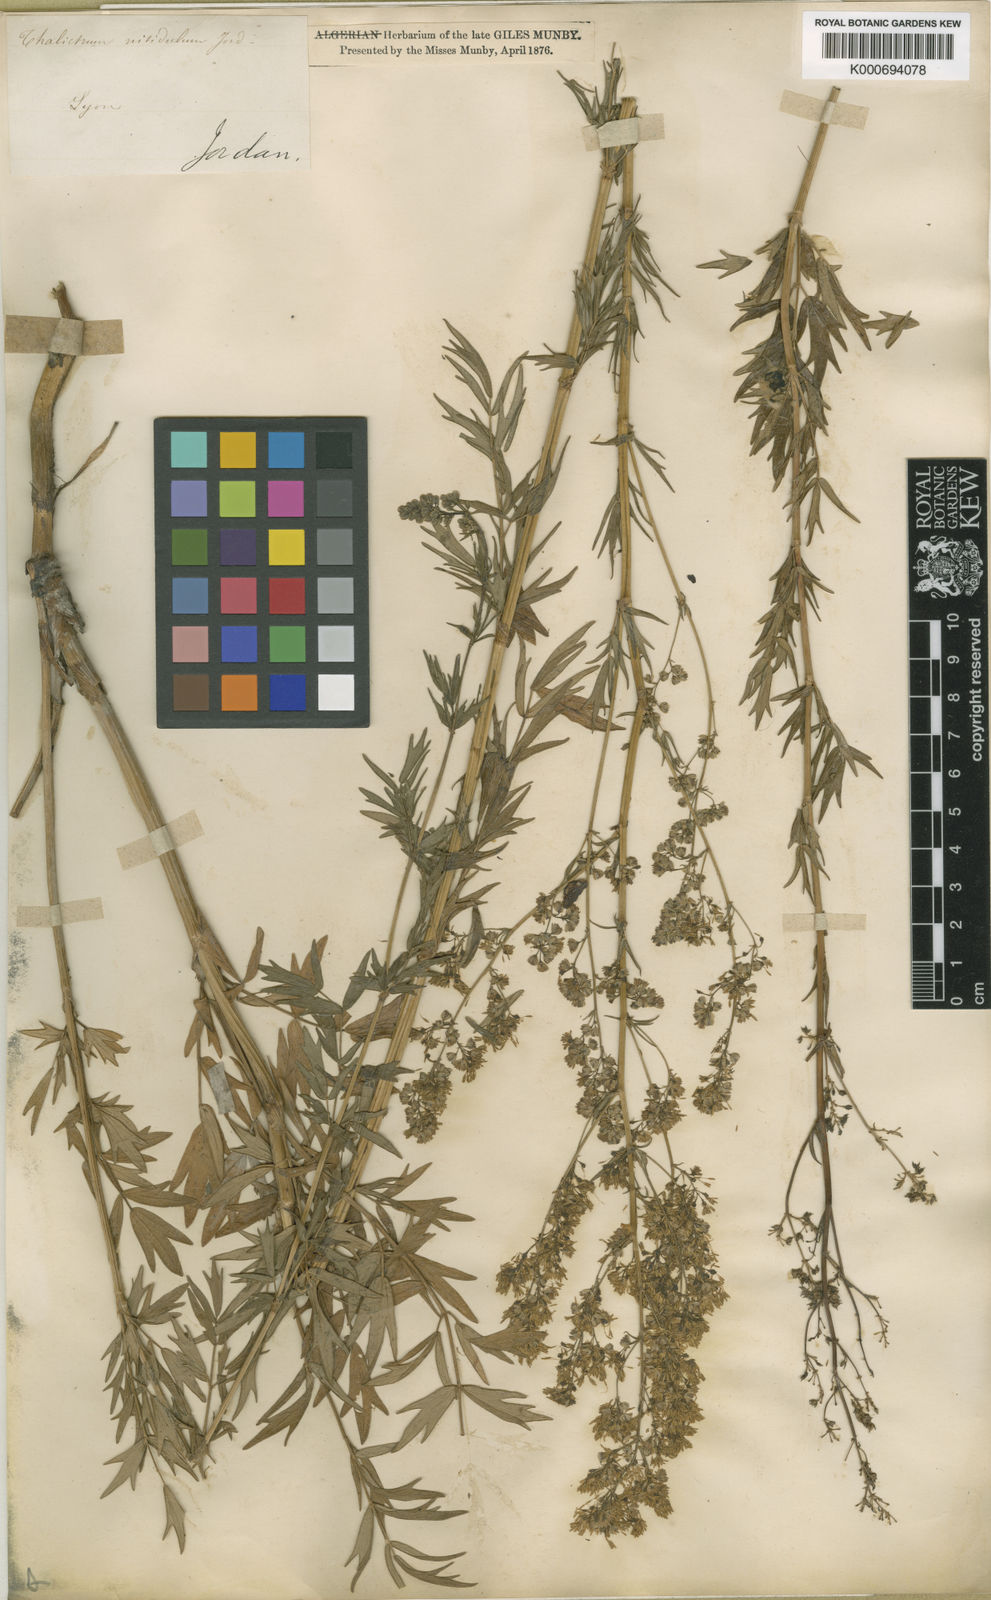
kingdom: Plantae
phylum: Tracheophyta
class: Magnoliopsida
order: Ranunculales
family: Ranunculaceae
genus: Thalictrum
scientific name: Thalictrum simplex
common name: Small meadow-rue
